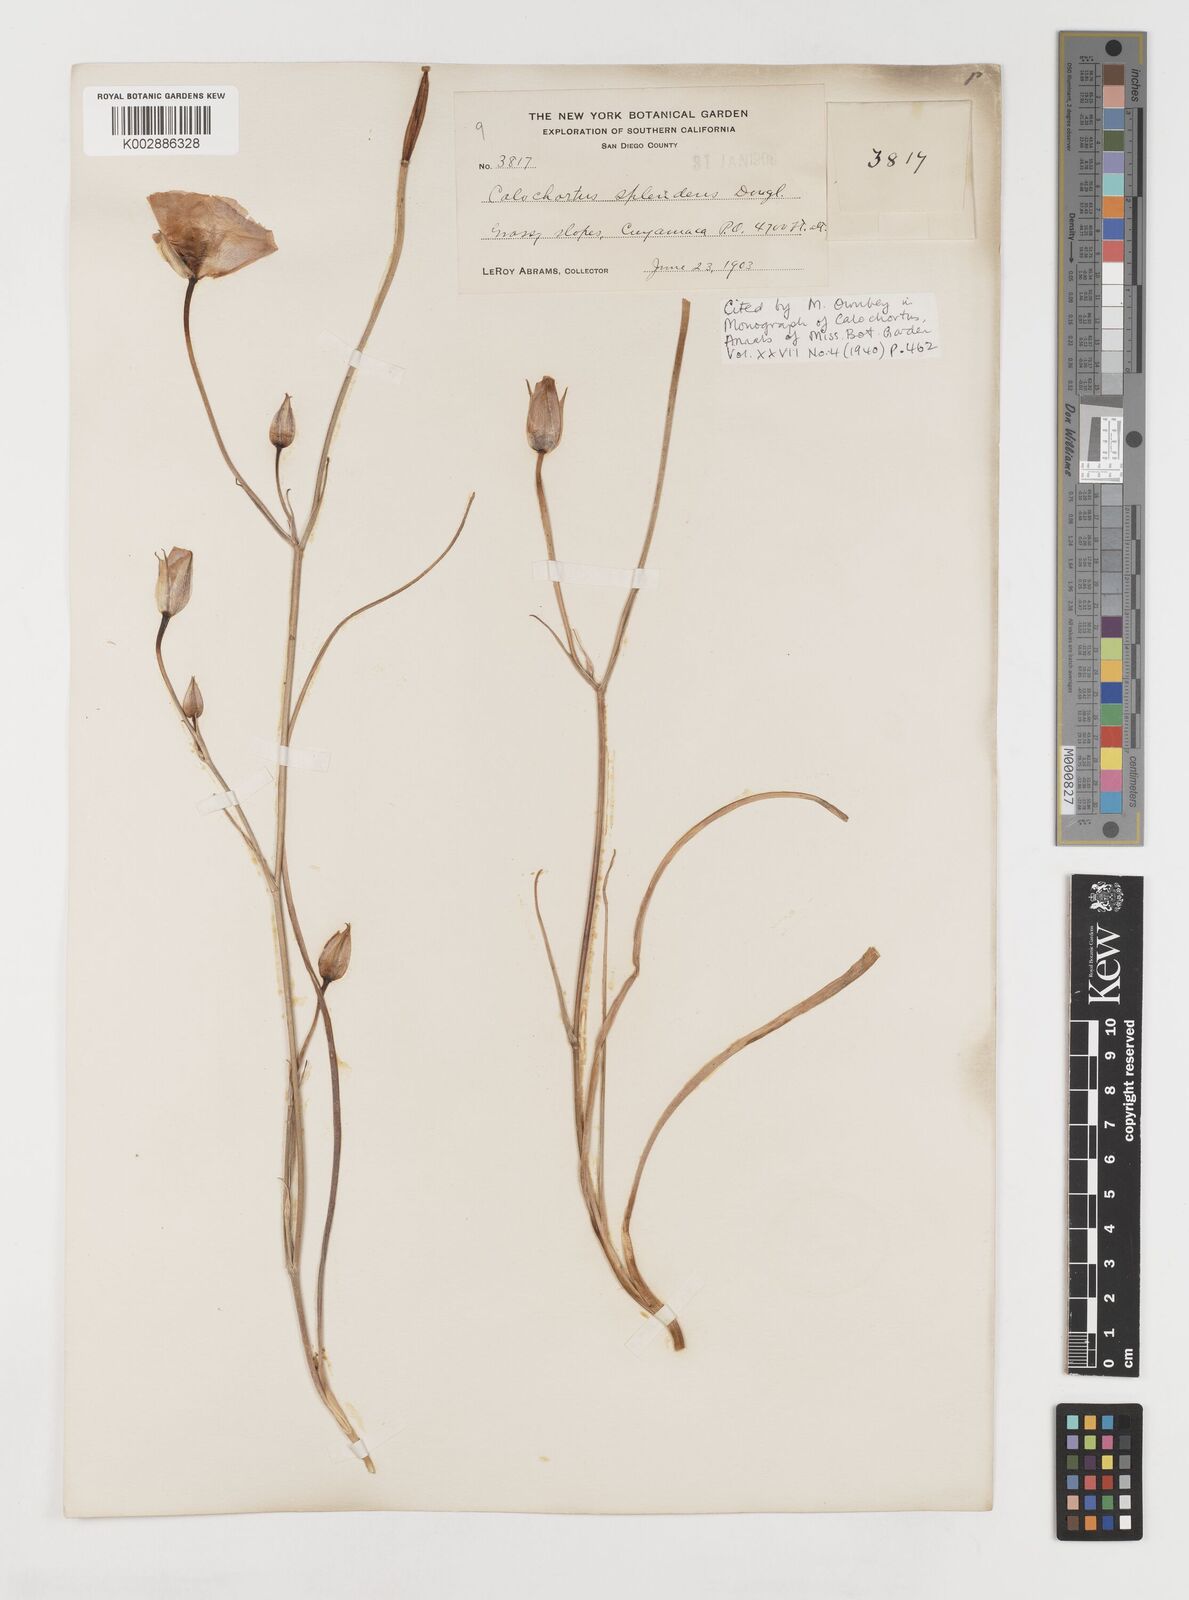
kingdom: Plantae
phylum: Tracheophyta
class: Liliopsida
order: Liliales
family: Liliaceae
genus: Calochortus
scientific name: Calochortus splendens
